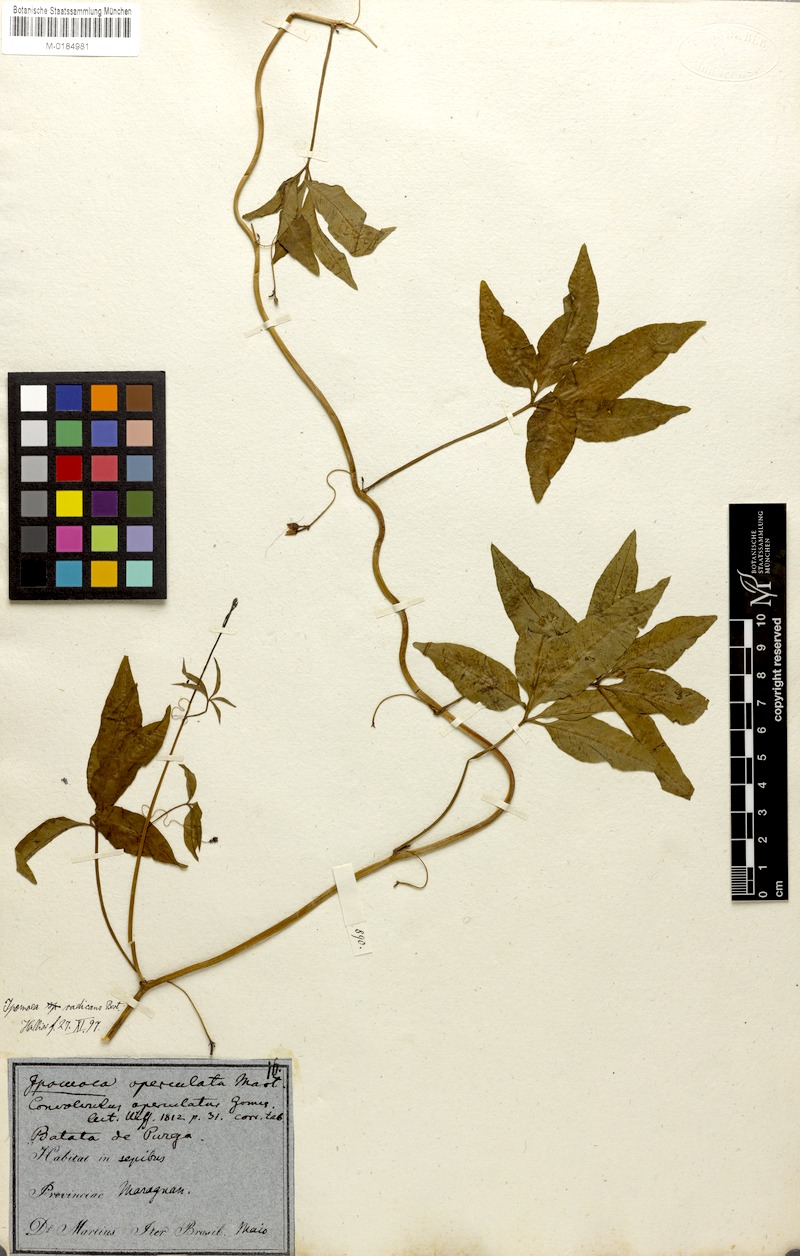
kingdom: Plantae
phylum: Tracheophyta
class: Magnoliopsida
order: Solanales
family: Convolvulaceae
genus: Ipomoea
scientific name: Ipomoea cairica
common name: Mile a minute vine
